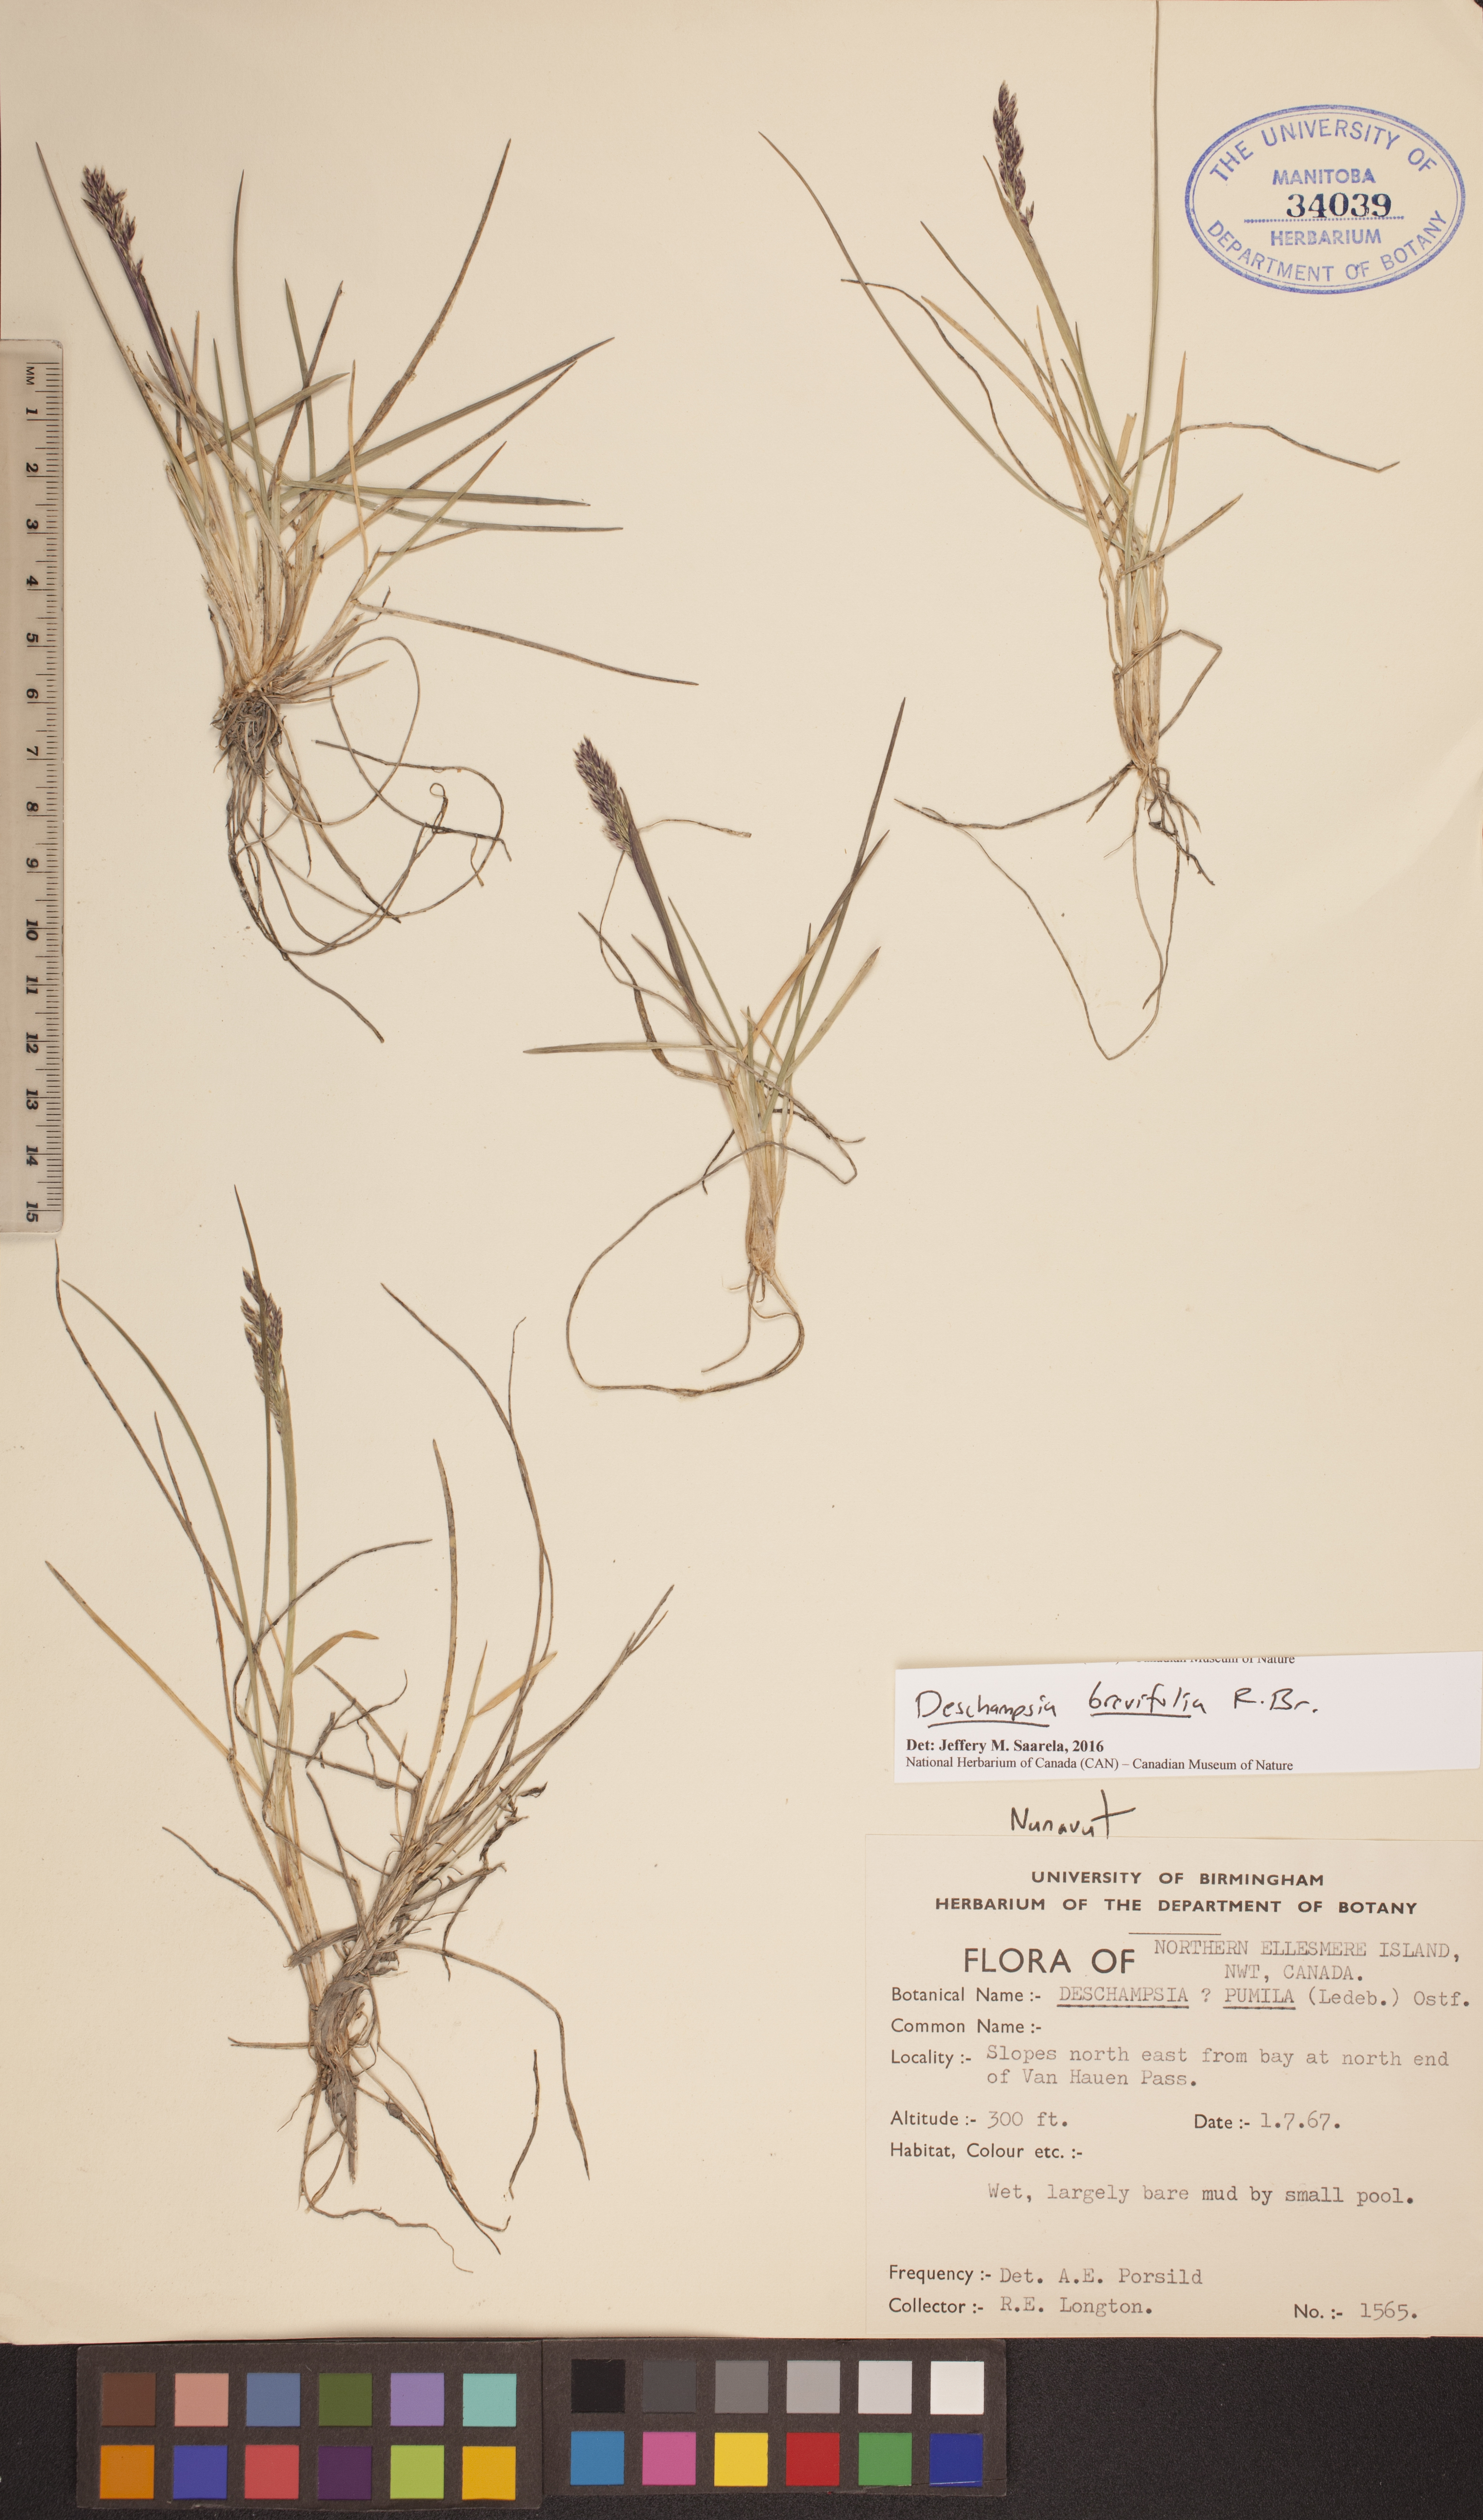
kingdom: Plantae
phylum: Tracheophyta
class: Liliopsida
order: Poales
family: Poaceae
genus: Deschampsia
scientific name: Deschampsia cespitosa
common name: Tufted hair-grass
